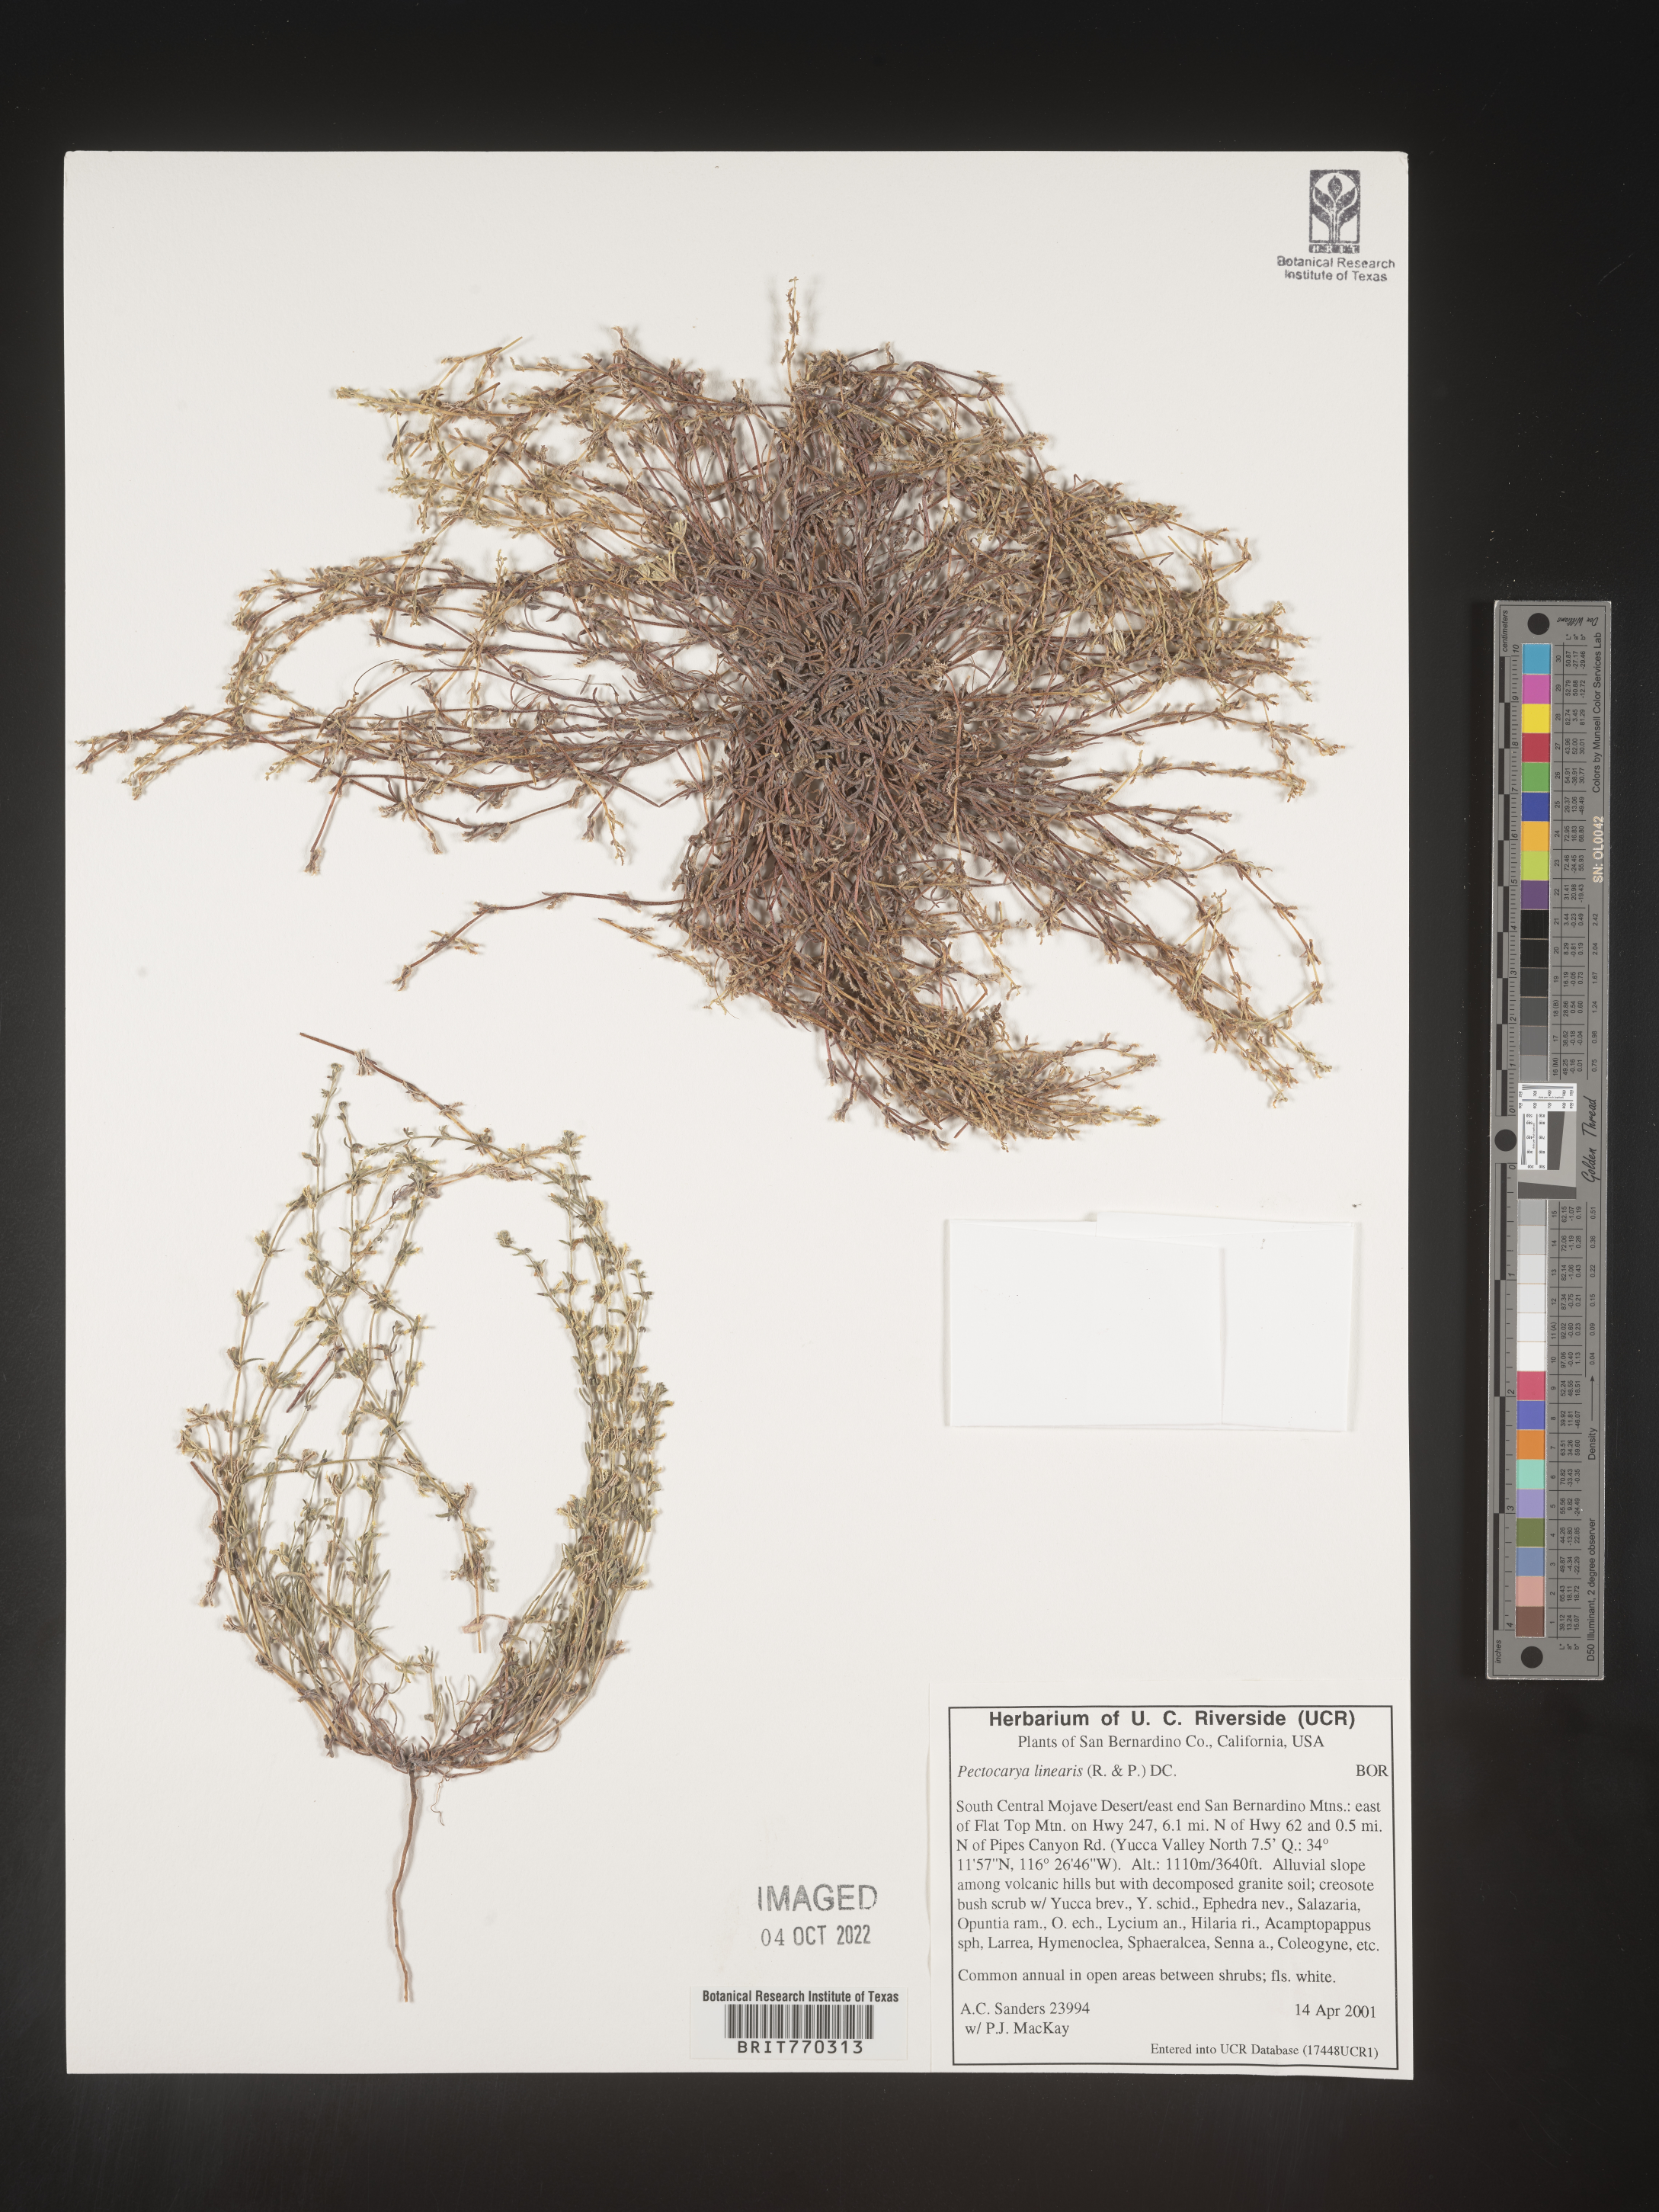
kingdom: Plantae
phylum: Tracheophyta
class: Magnoliopsida
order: Boraginales
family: Boraginaceae
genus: Pectocarya
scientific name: Pectocarya
